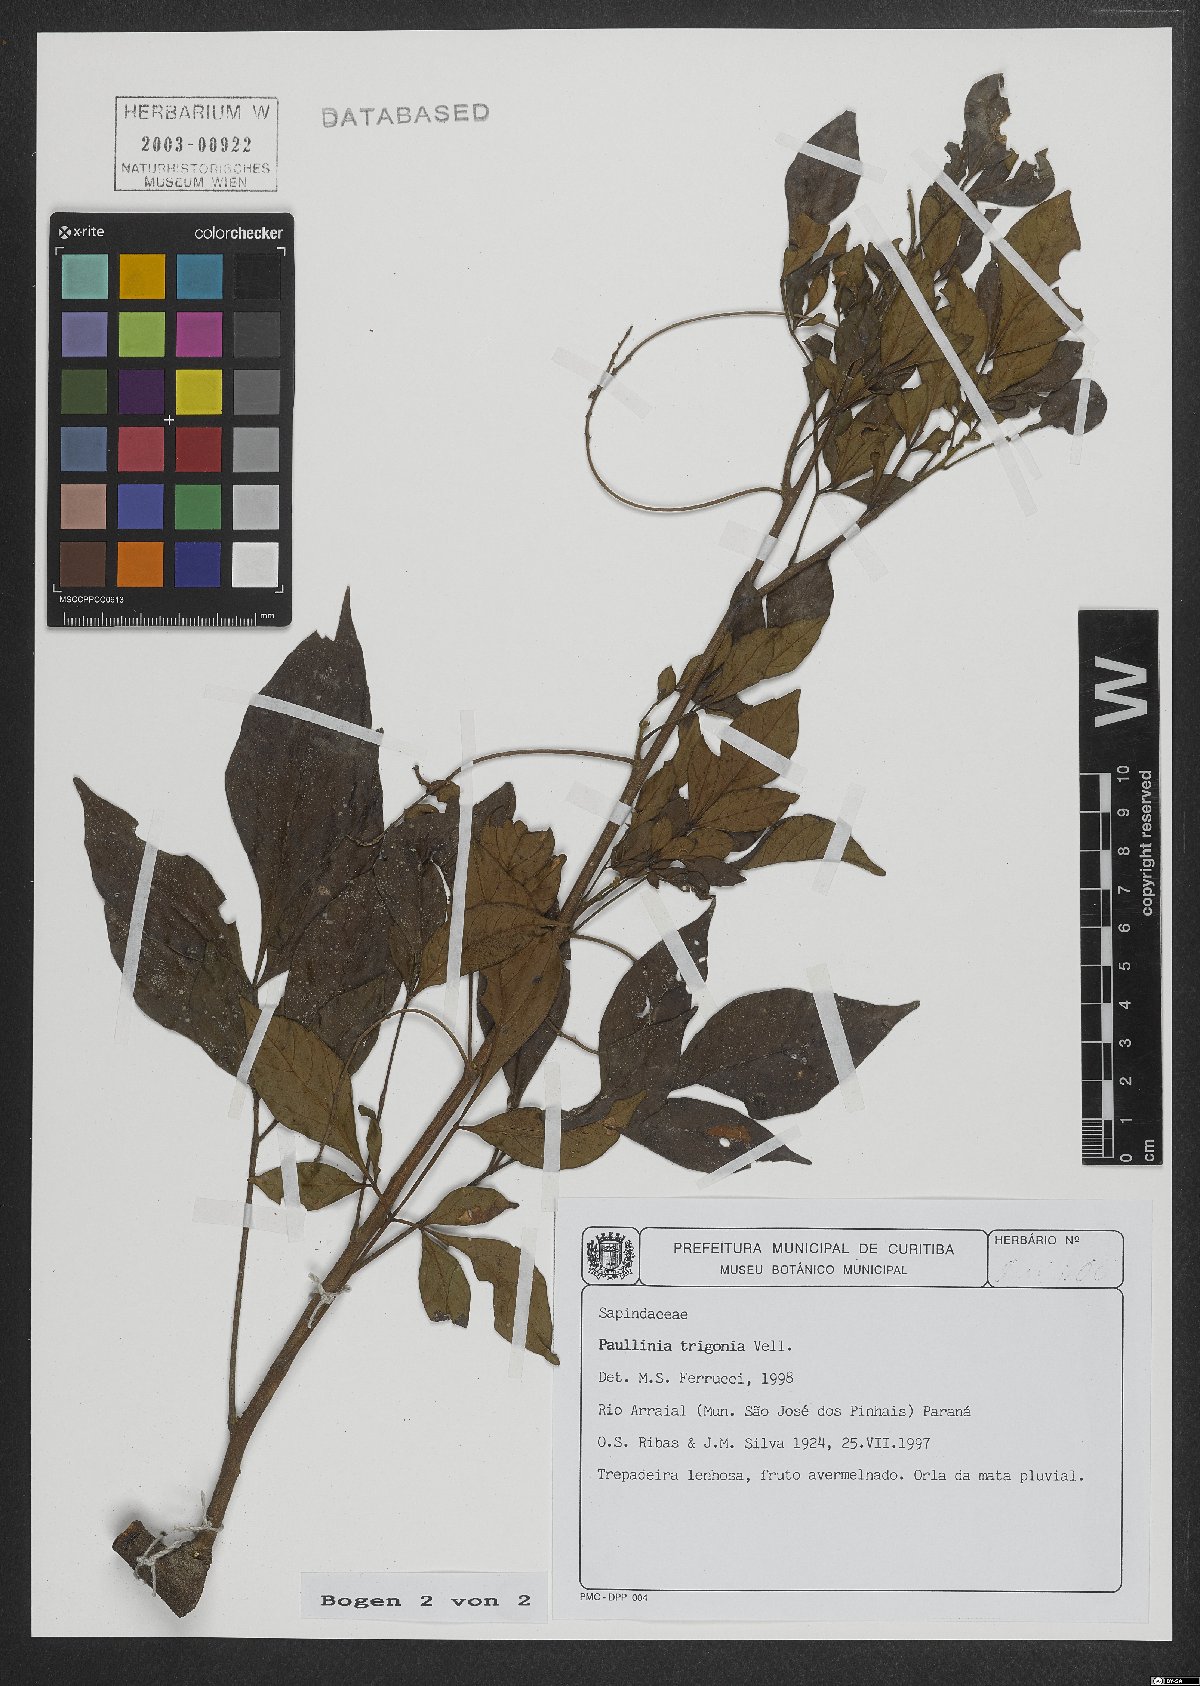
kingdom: Plantae
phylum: Tracheophyta
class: Magnoliopsida
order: Sapindales
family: Sapindaceae
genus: Paullinia
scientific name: Paullinia trigonia
